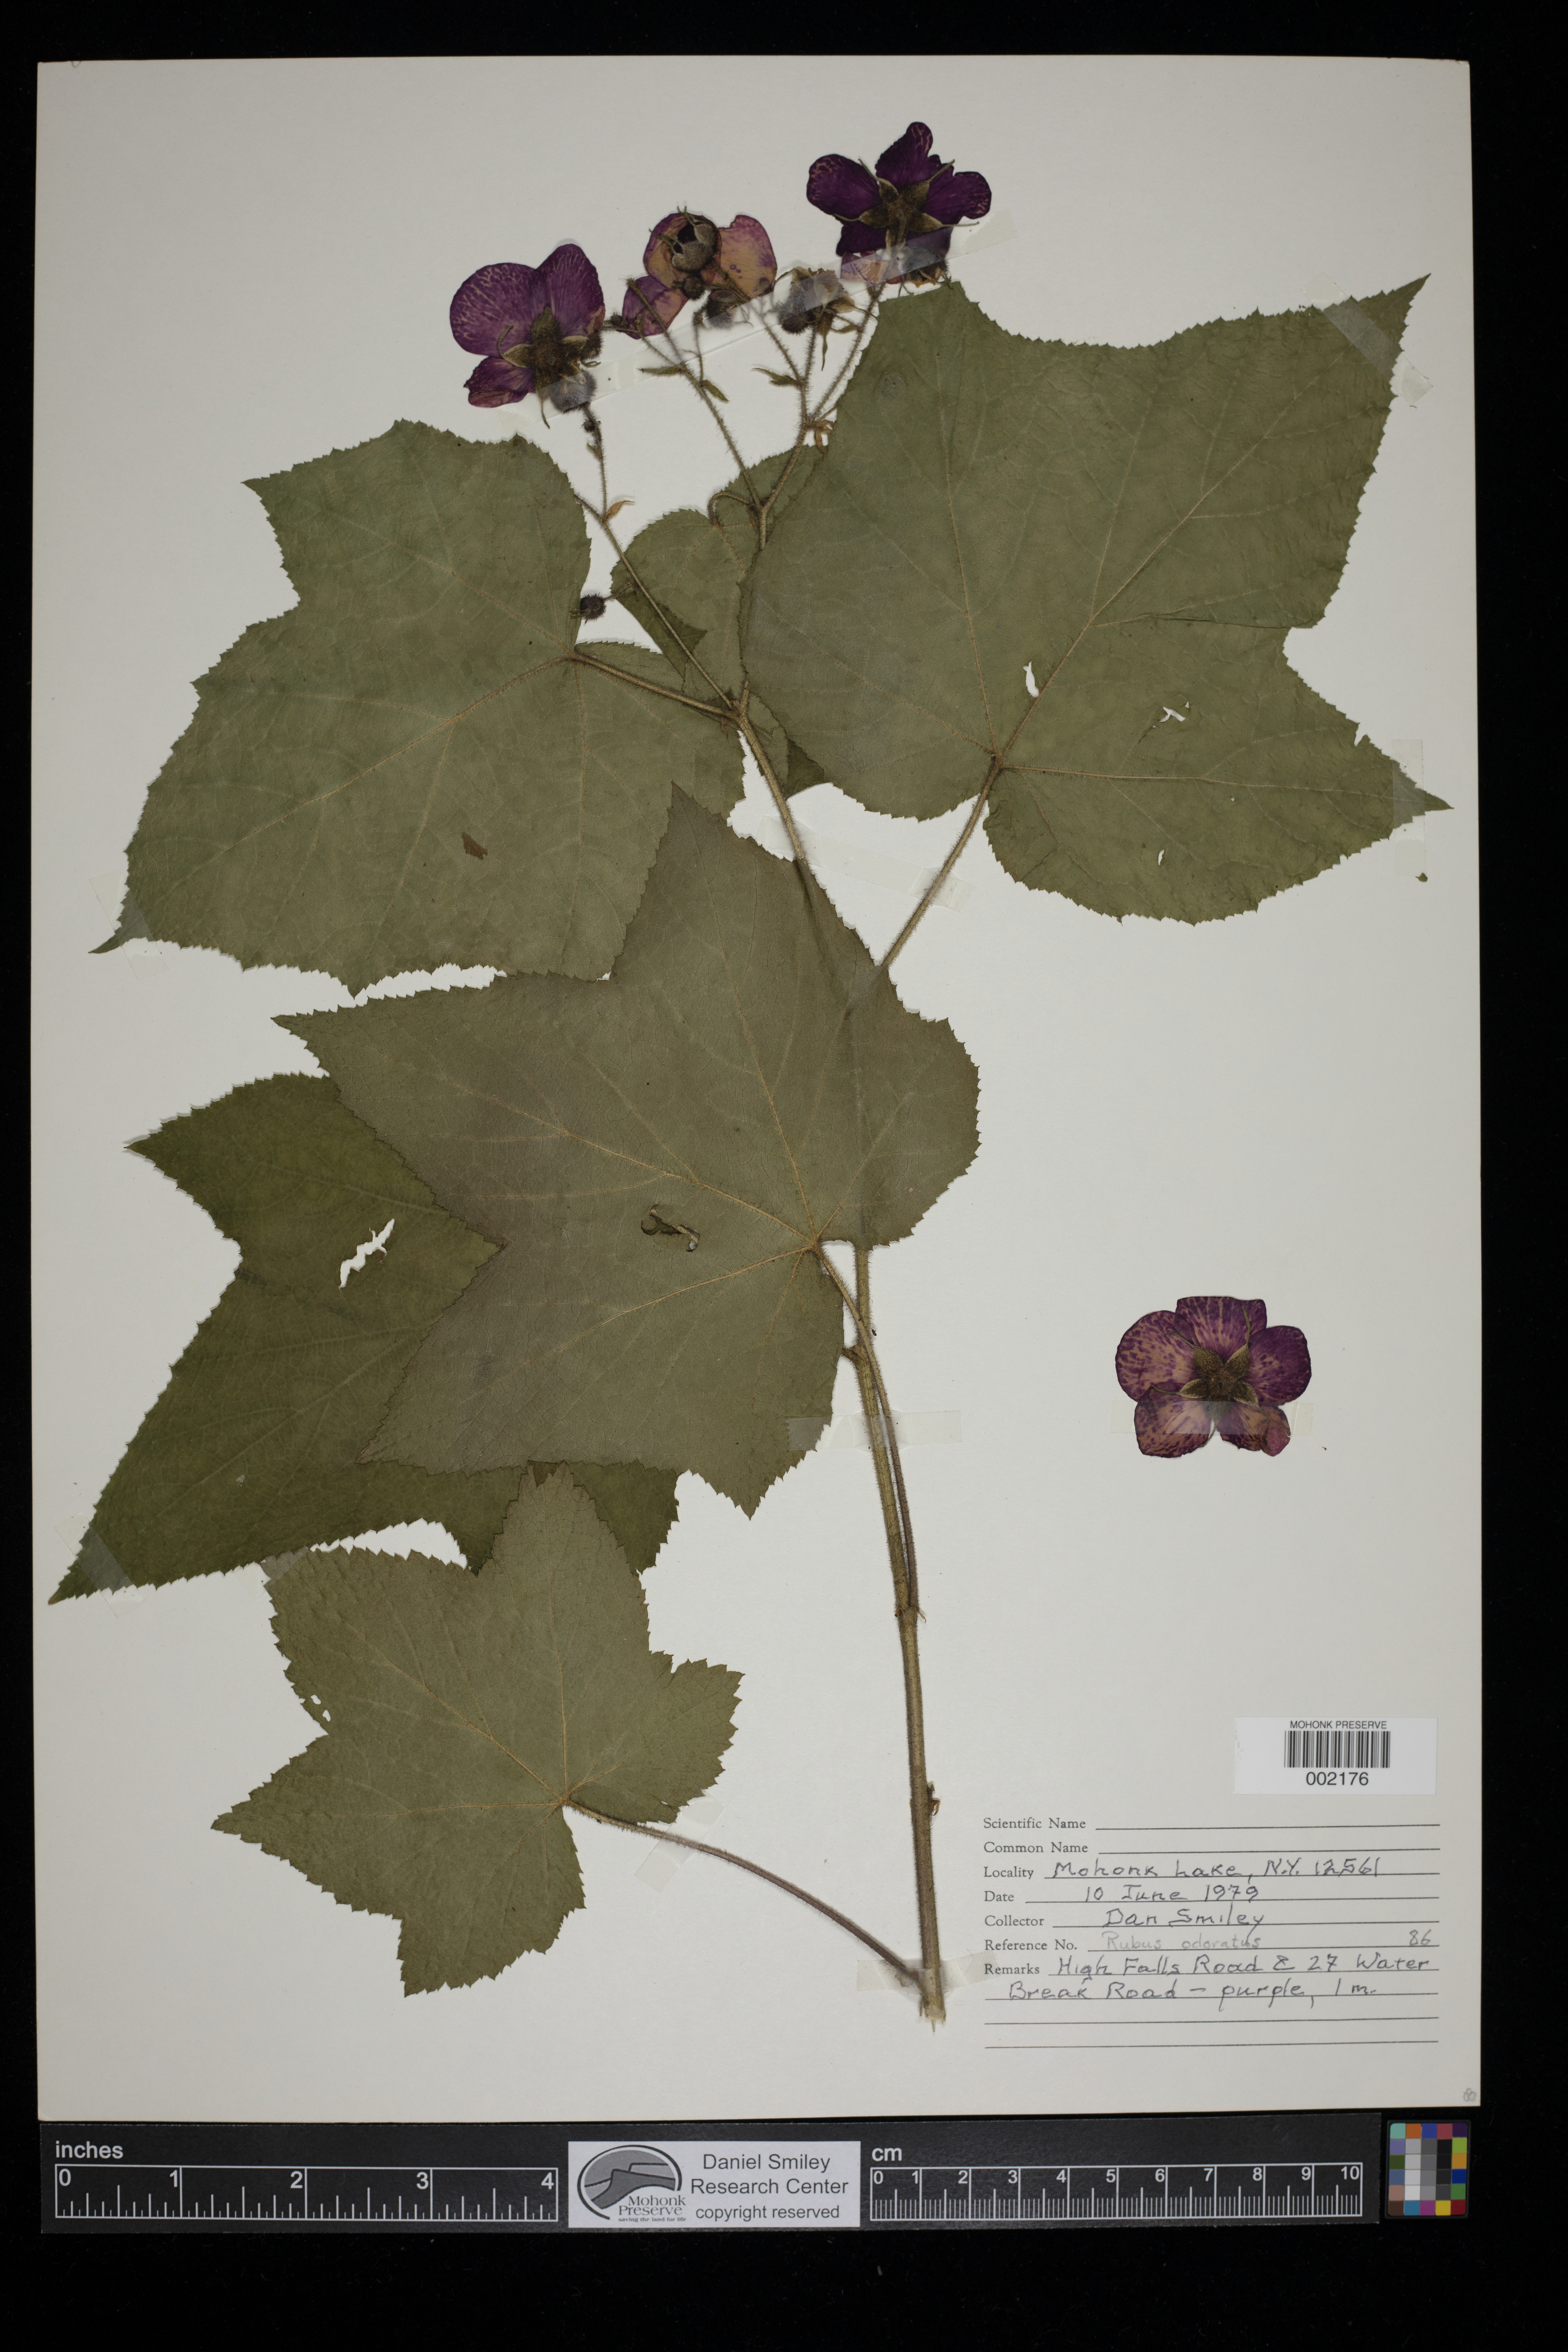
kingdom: Plantae
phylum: Tracheophyta
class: Magnoliopsida
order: Rosales
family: Rosaceae
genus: Rubus
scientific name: Rubus odoratus
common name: Purple-flowered raspberry
